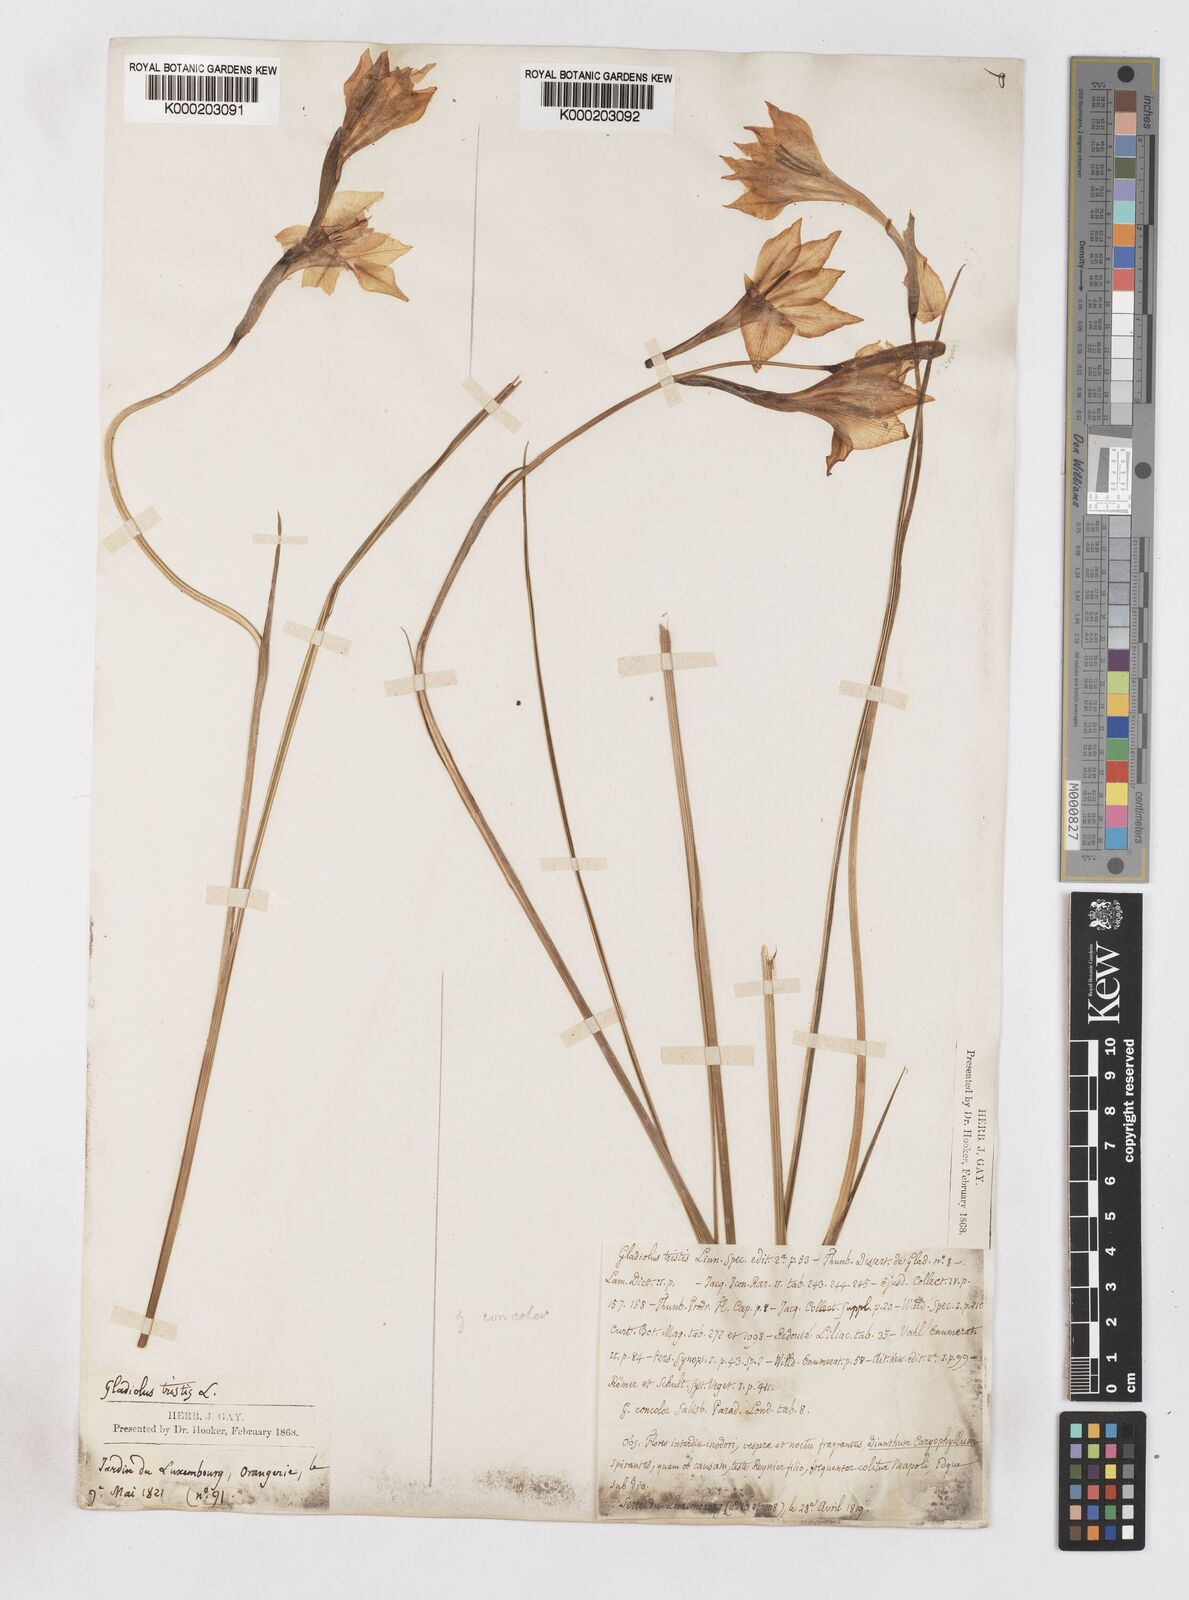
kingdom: Plantae
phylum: Tracheophyta
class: Liliopsida
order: Asparagales
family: Iridaceae
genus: Gladiolus
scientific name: Gladiolus tristis
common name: Ever-flowering gladiolus
